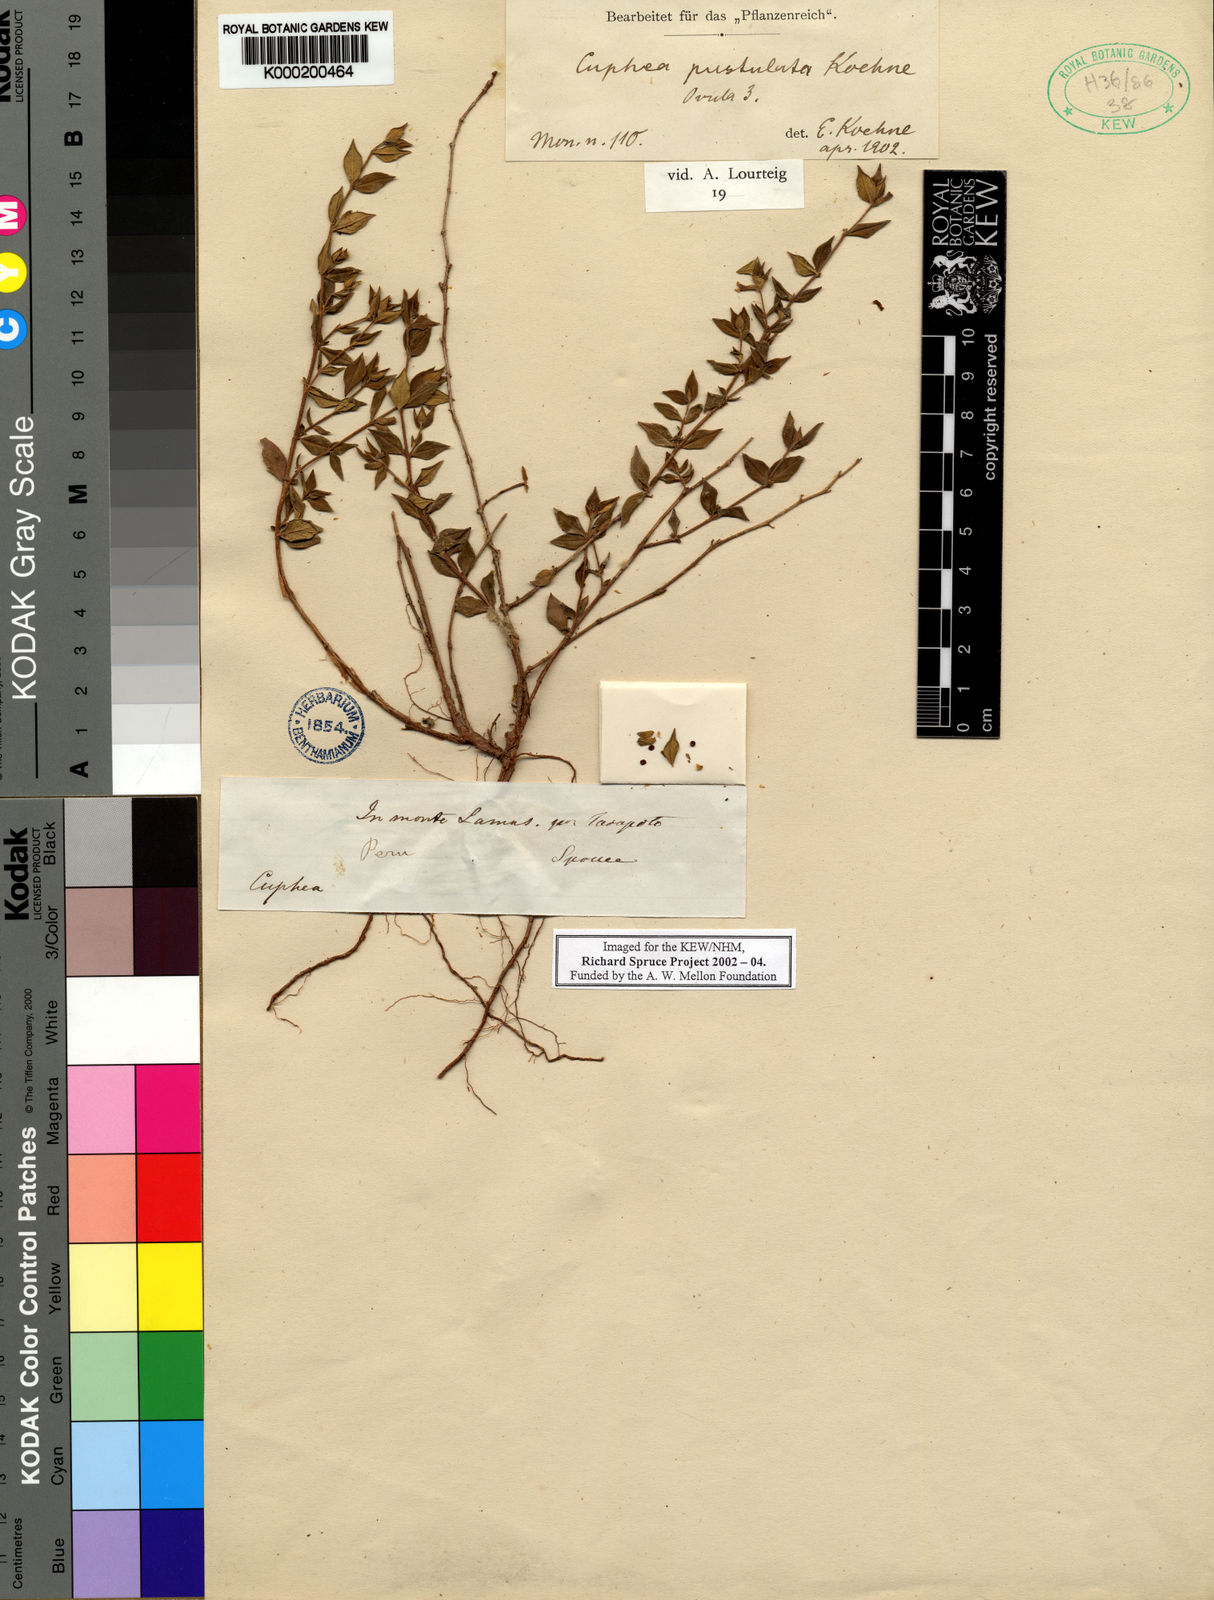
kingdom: Plantae
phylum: Tracheophyta
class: Magnoliopsida
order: Myrtales
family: Lythraceae
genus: Cuphea
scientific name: Cuphea pustulata
